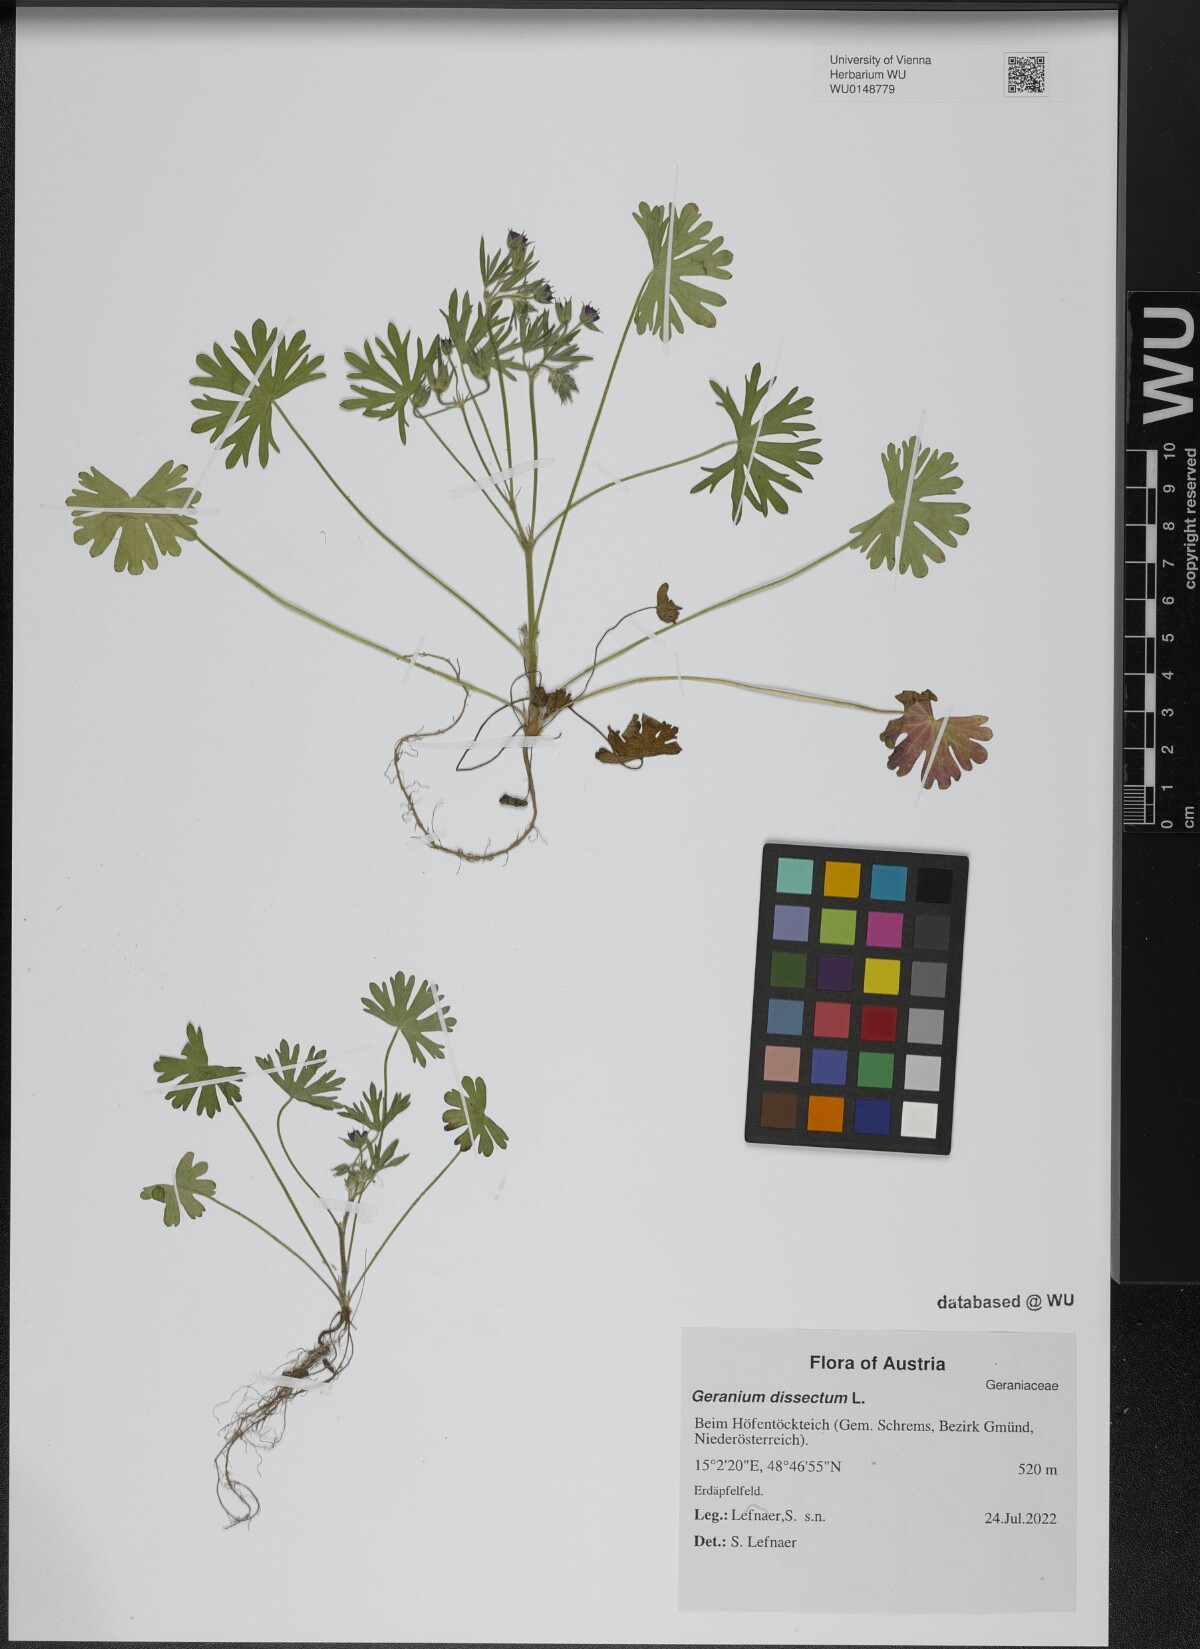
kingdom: Plantae
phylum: Tracheophyta
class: Magnoliopsida
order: Geraniales
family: Geraniaceae
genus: Geranium
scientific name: Geranium dissectum
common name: Cut-leaved crane's-bill
